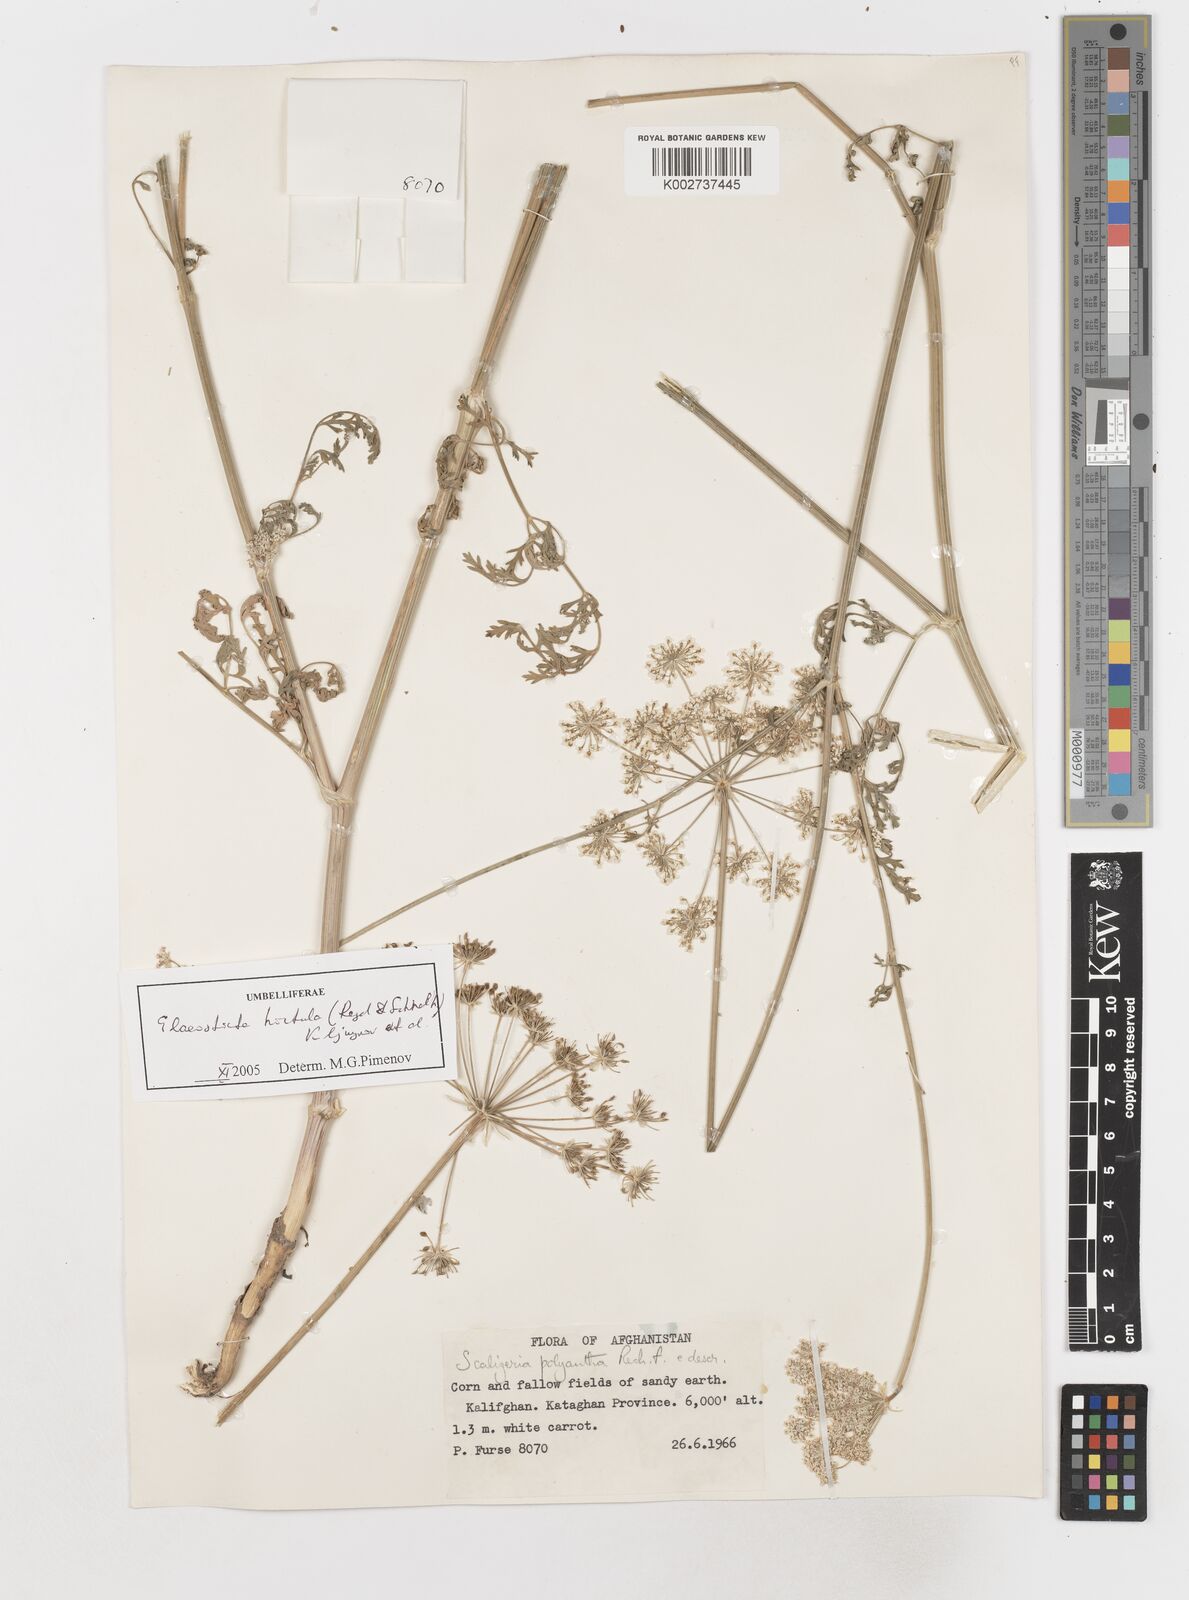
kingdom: Plantae
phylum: Tracheophyta
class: Magnoliopsida
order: Apiales
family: Apiaceae
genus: Scaligeria
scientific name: Scaligeria hirtula
